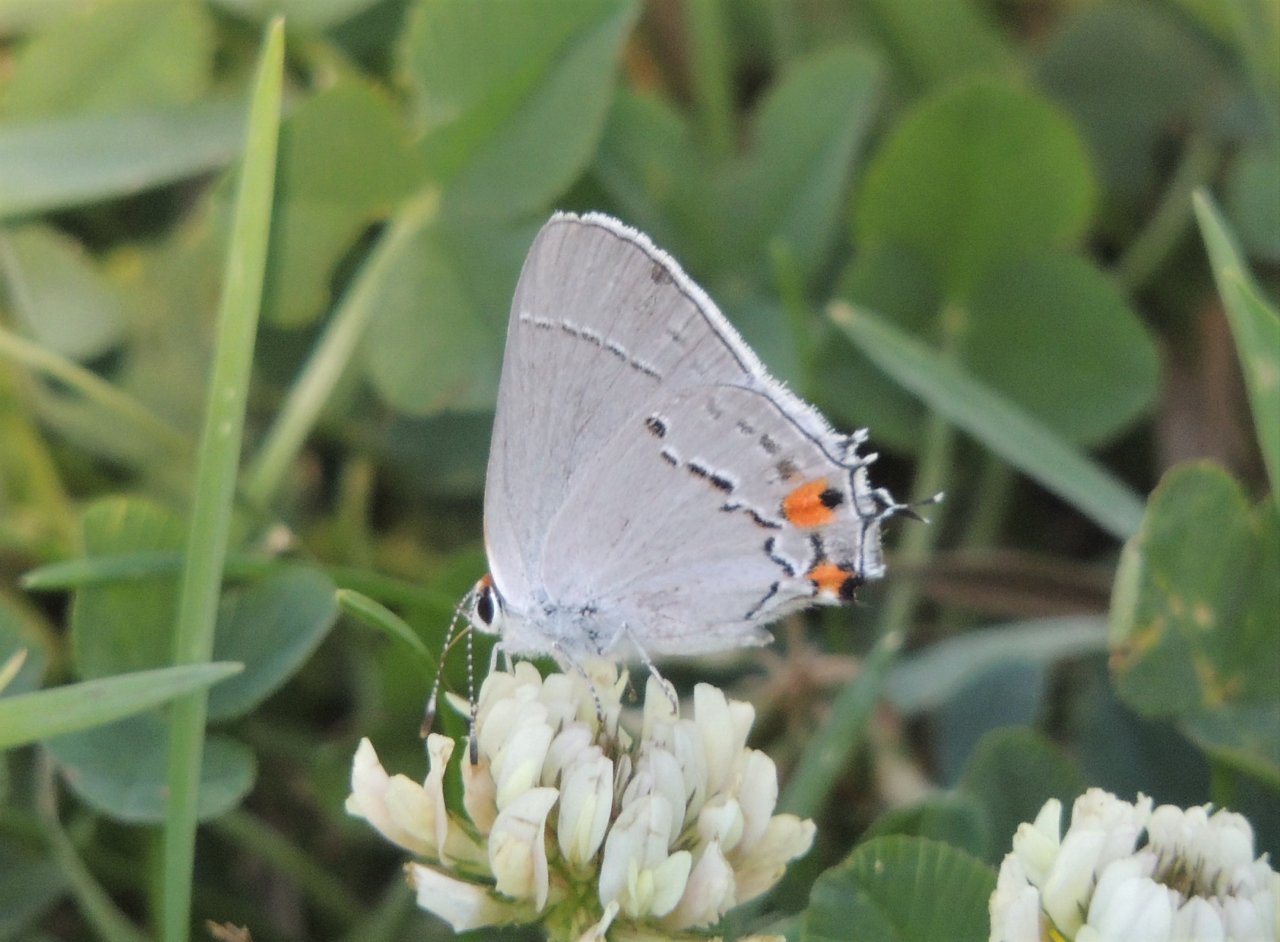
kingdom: Animalia
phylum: Arthropoda
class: Insecta
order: Lepidoptera
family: Lycaenidae
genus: Strymon
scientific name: Strymon melinus
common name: Gray Hairstreak
